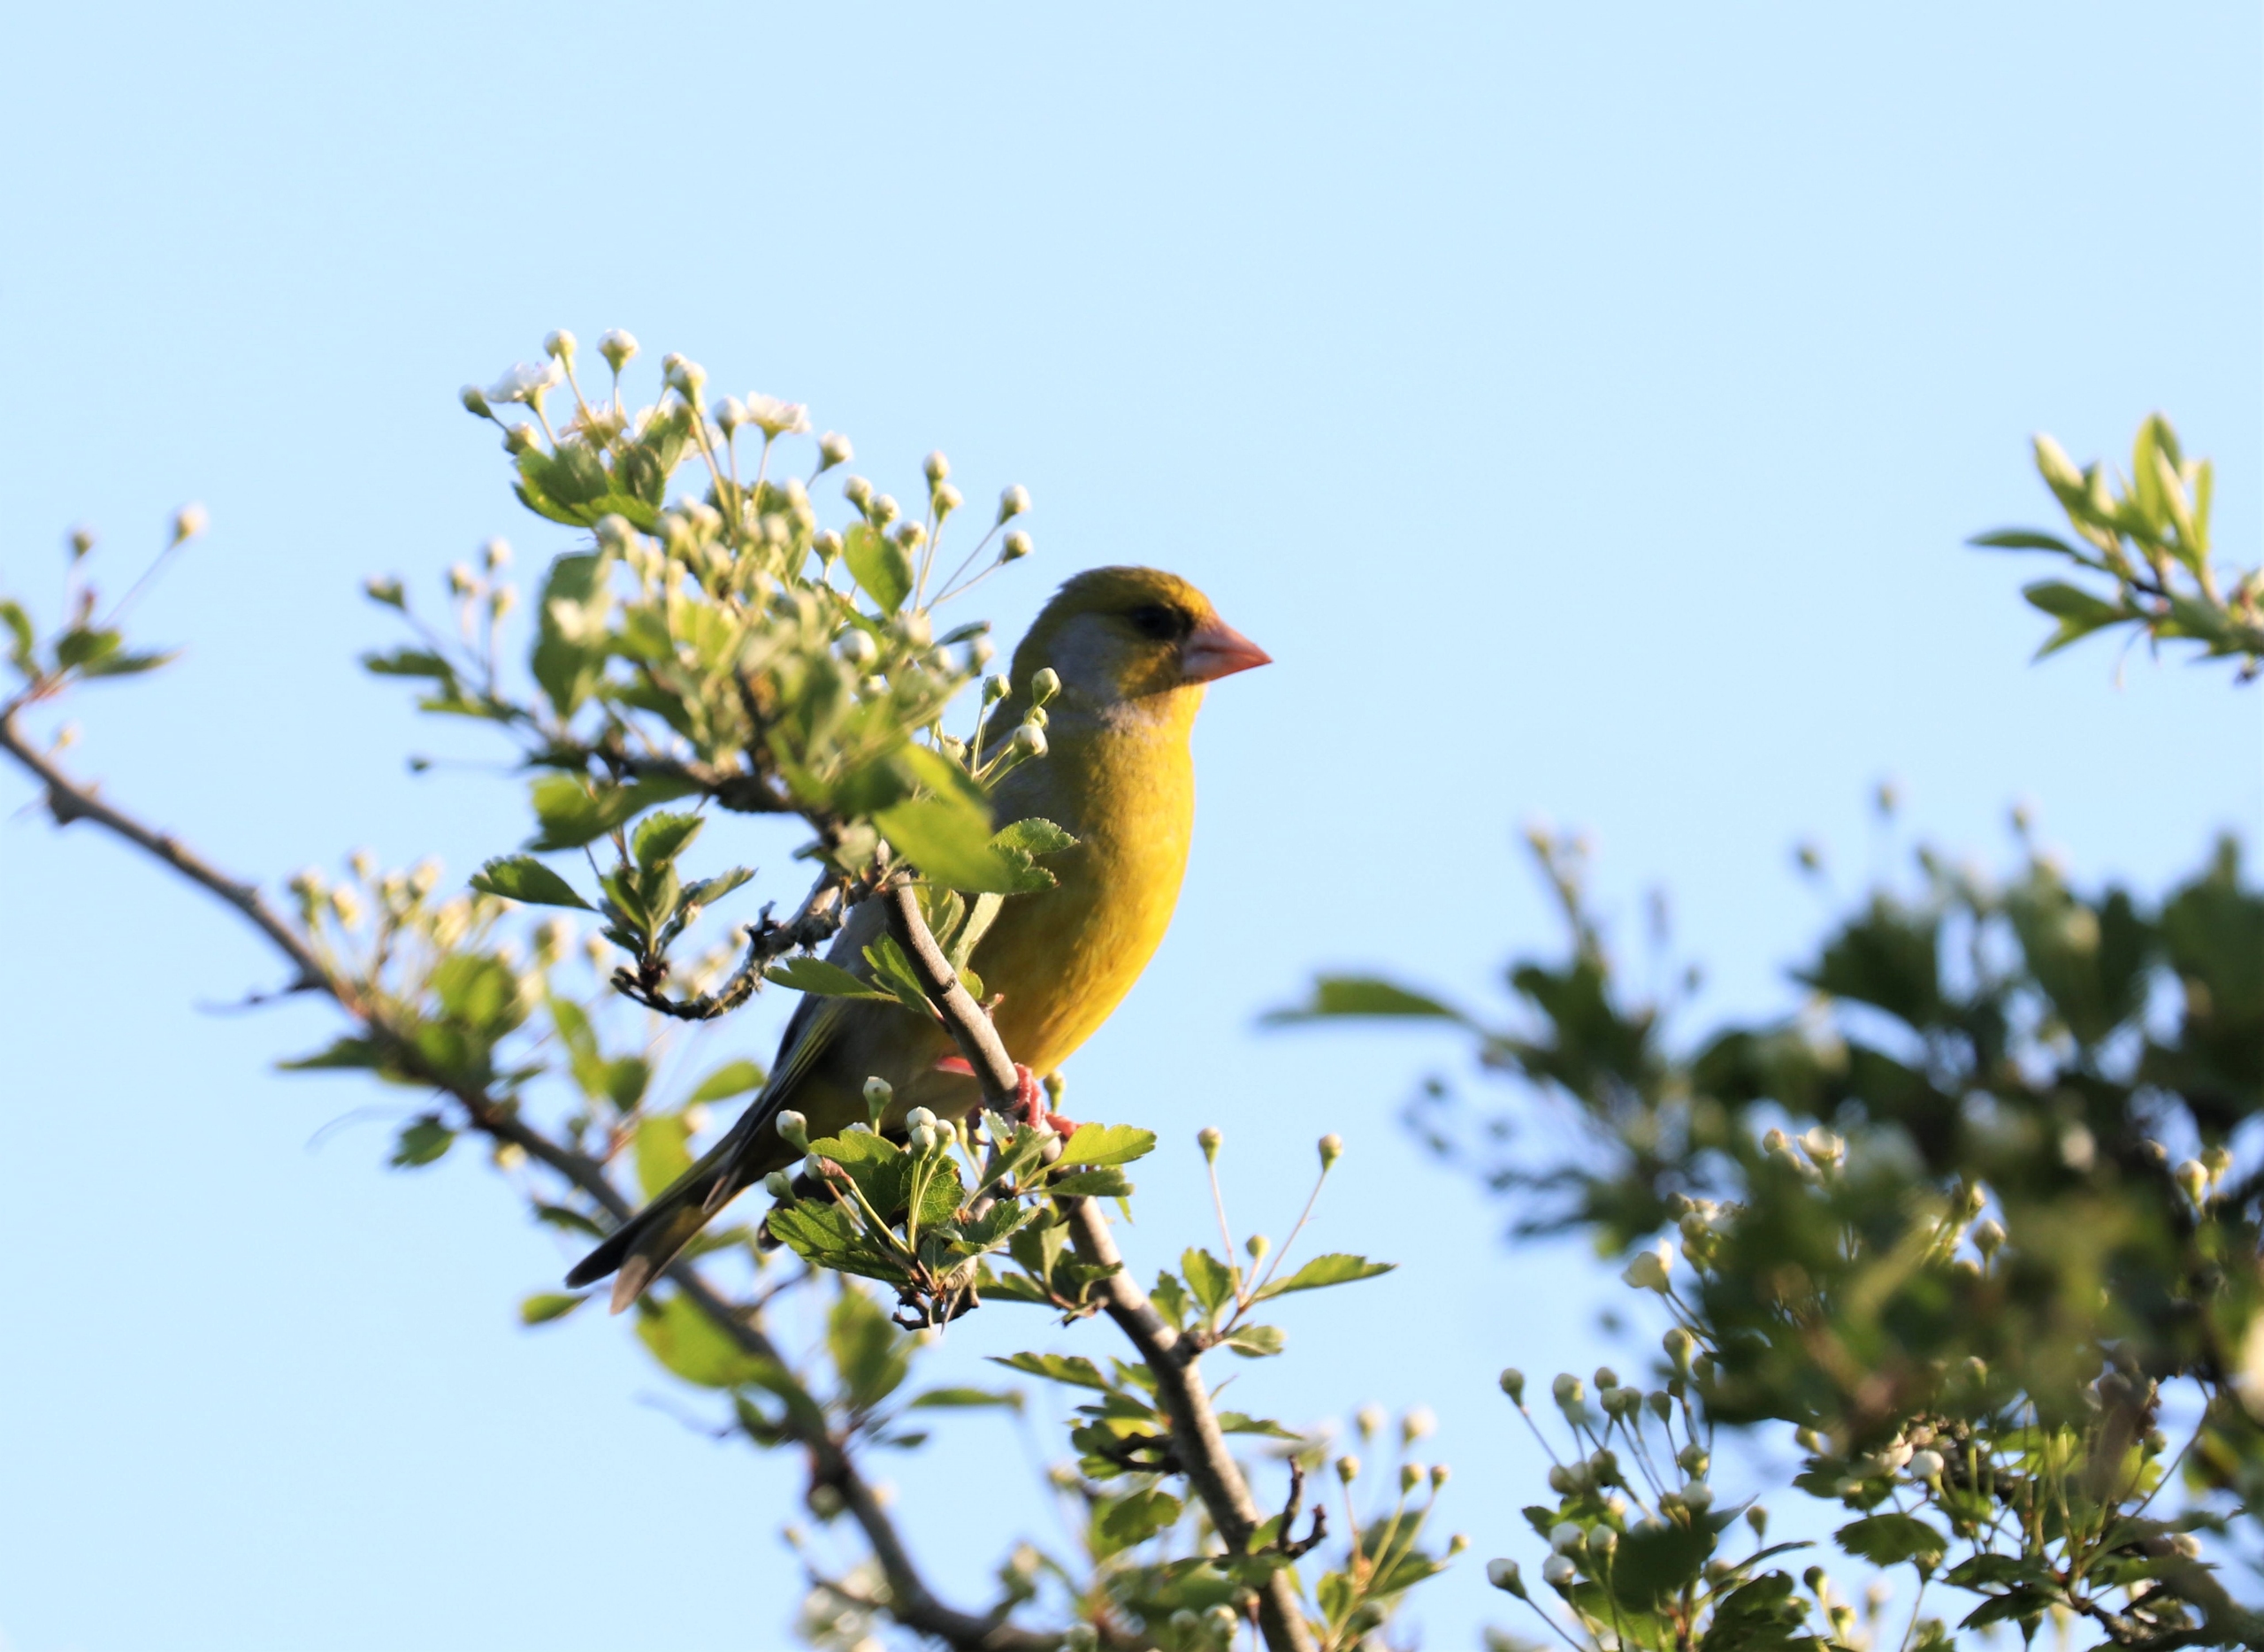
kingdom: Plantae
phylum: Tracheophyta
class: Liliopsida
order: Poales
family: Poaceae
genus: Chloris
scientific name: Chloris chloris
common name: Grønirisk
